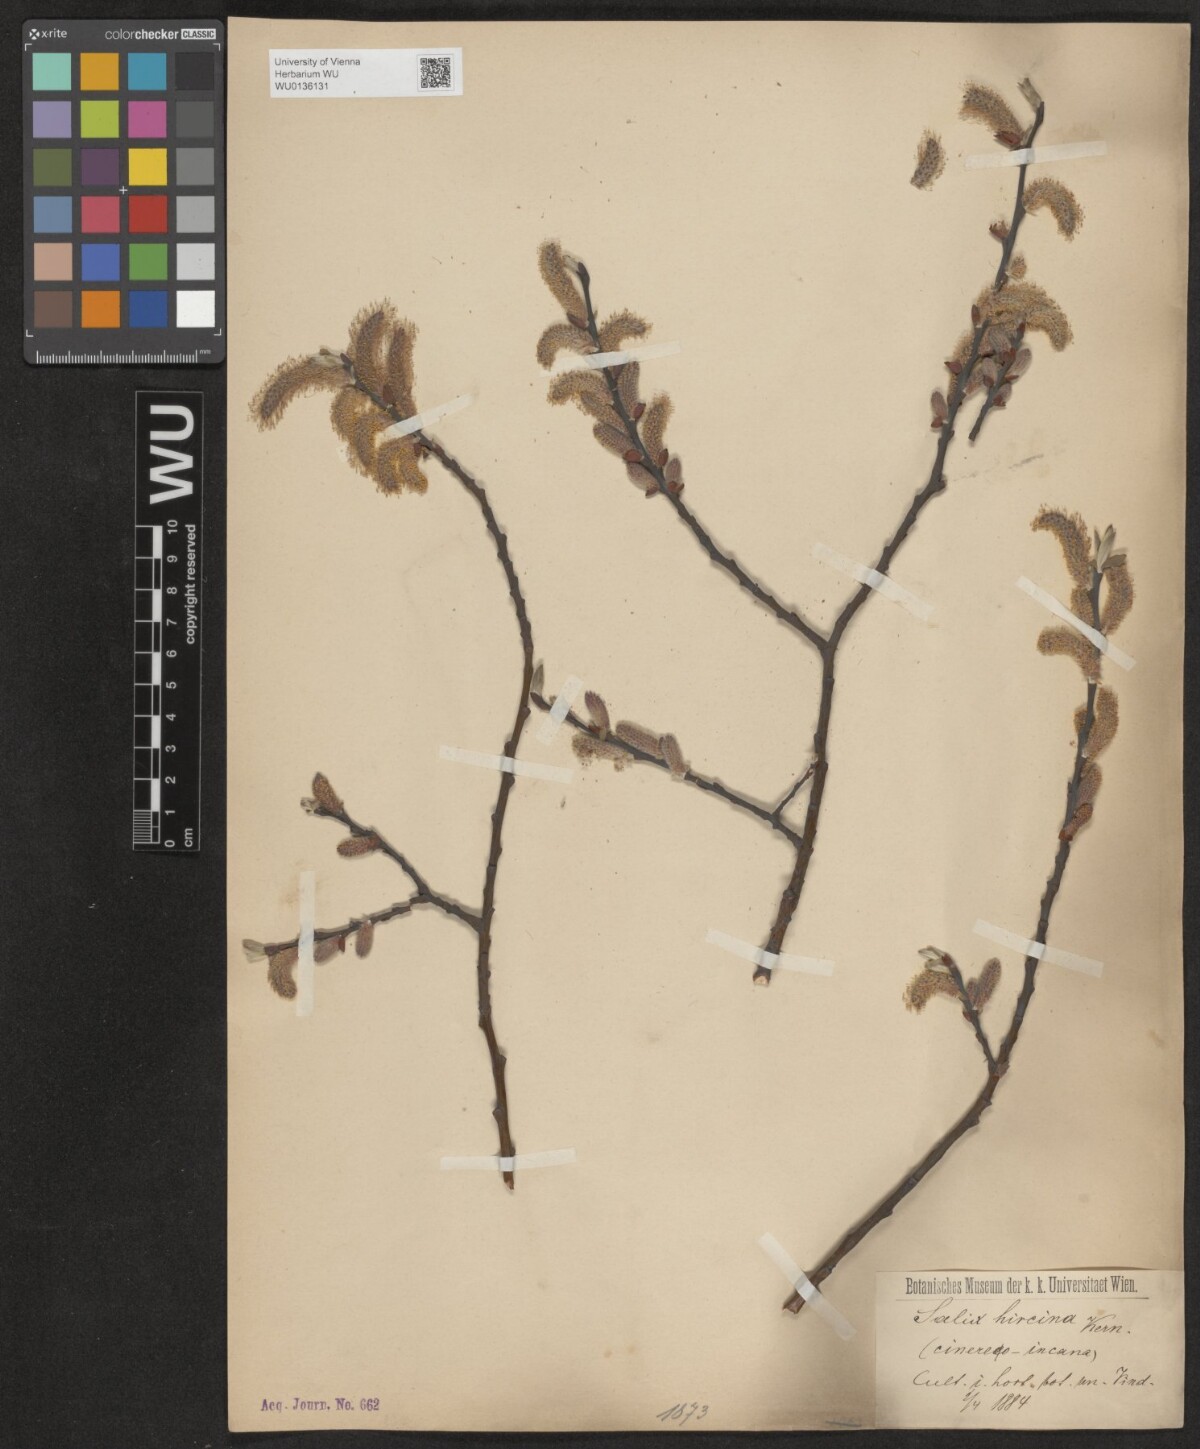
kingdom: Plantae
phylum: Tracheophyta
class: Magnoliopsida
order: Malpighiales
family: Salicaceae
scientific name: Salicaceae
